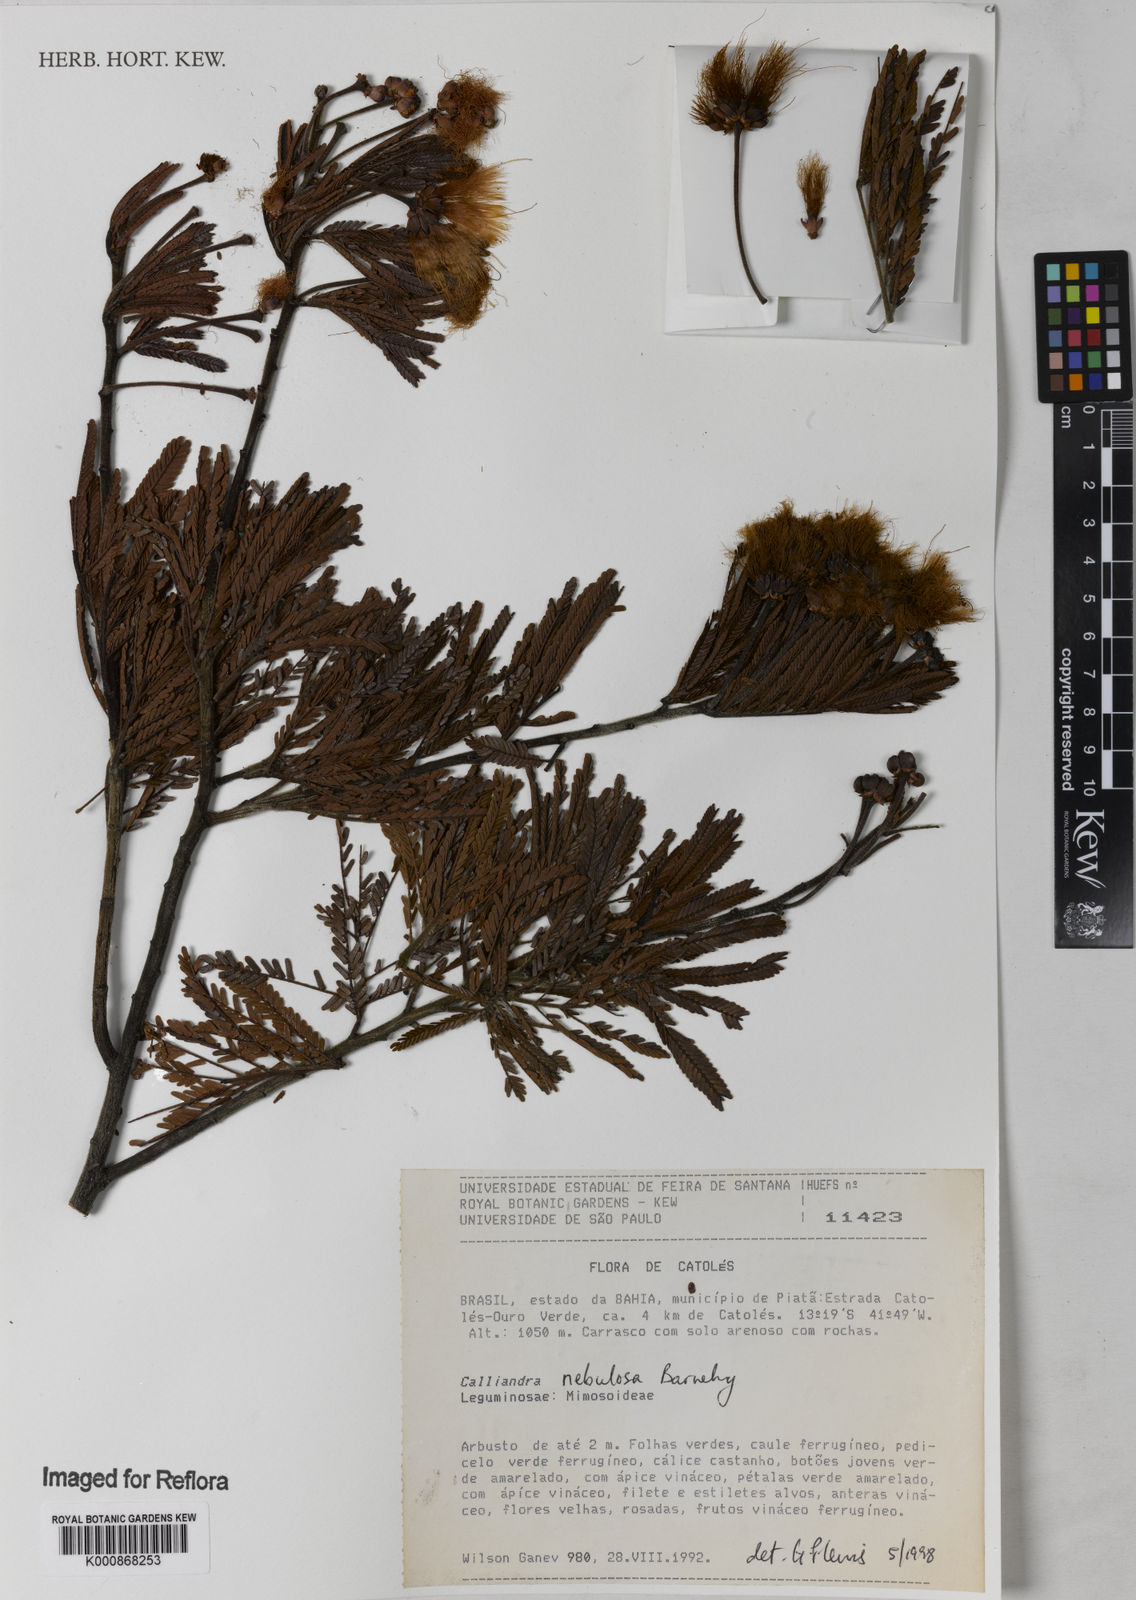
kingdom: Plantae
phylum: Tracheophyta
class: Magnoliopsida
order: Fabales
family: Fabaceae
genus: Calliandra
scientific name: Calliandra nebulosa
